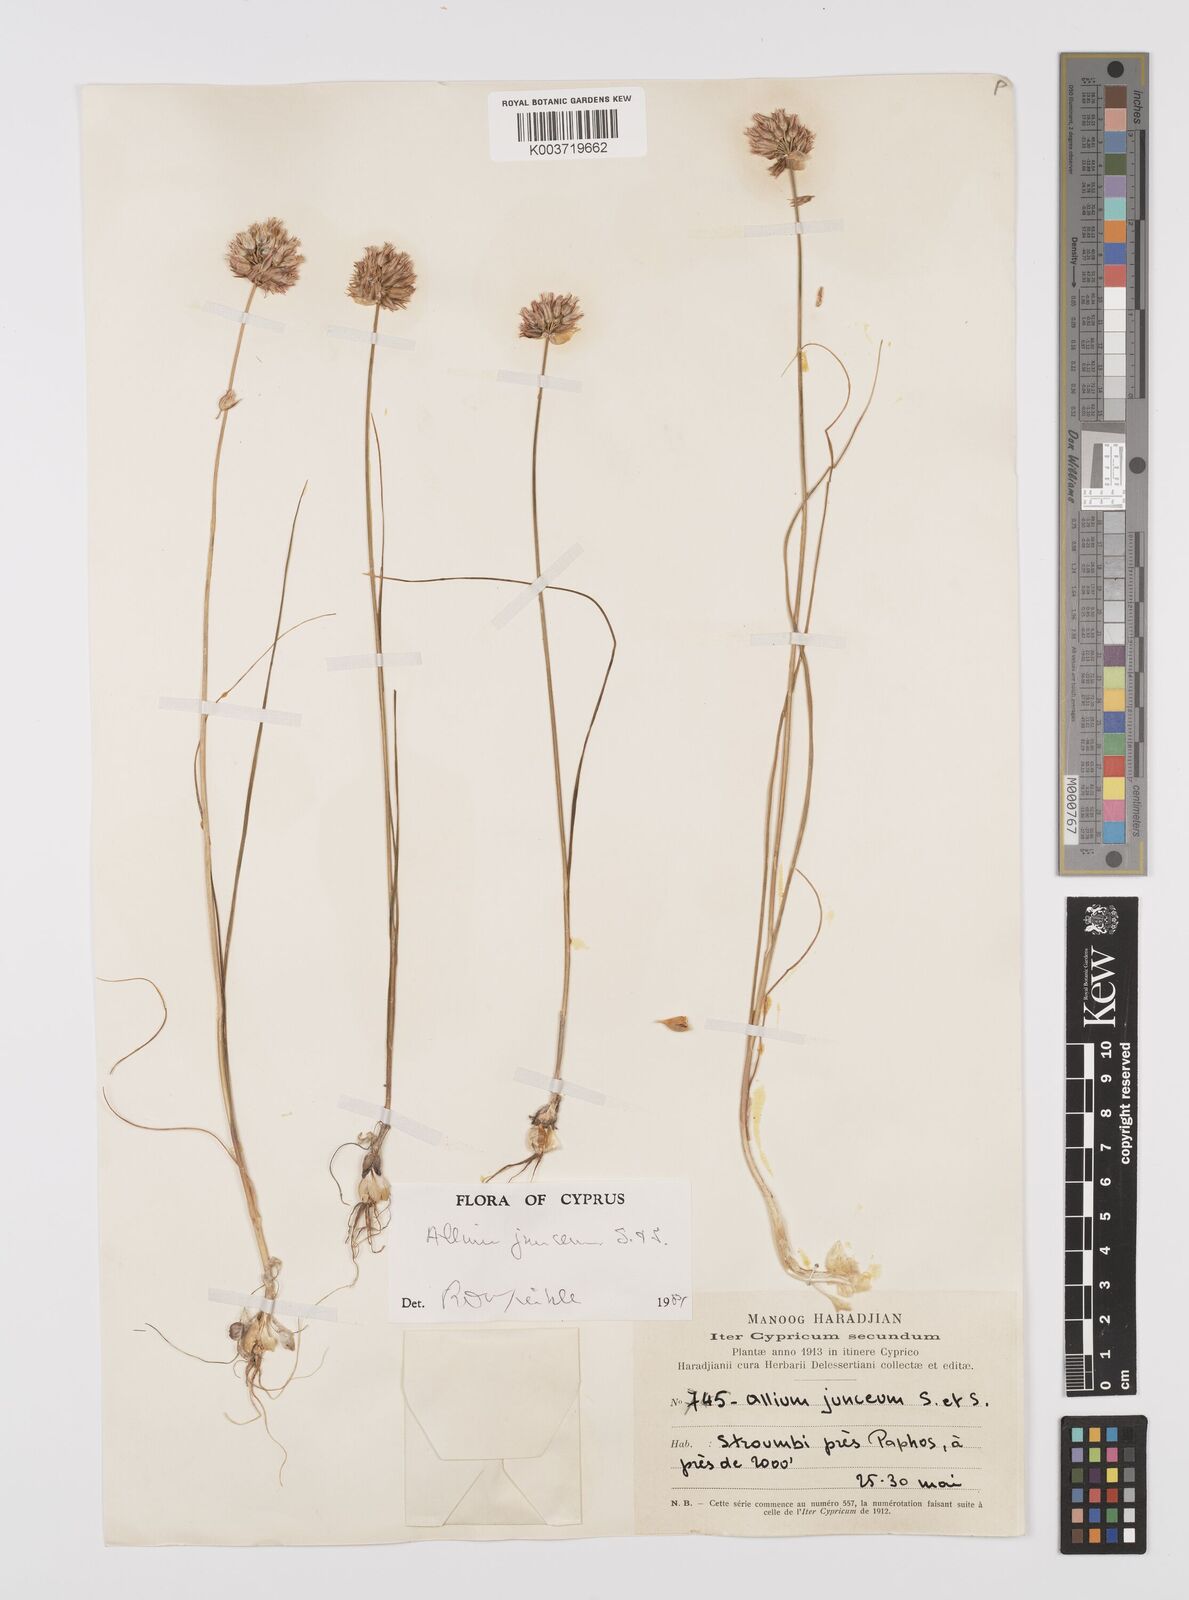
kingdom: Plantae
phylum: Tracheophyta
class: Liliopsida
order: Asparagales
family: Amaryllidaceae
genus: Allium
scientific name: Allium junceum
